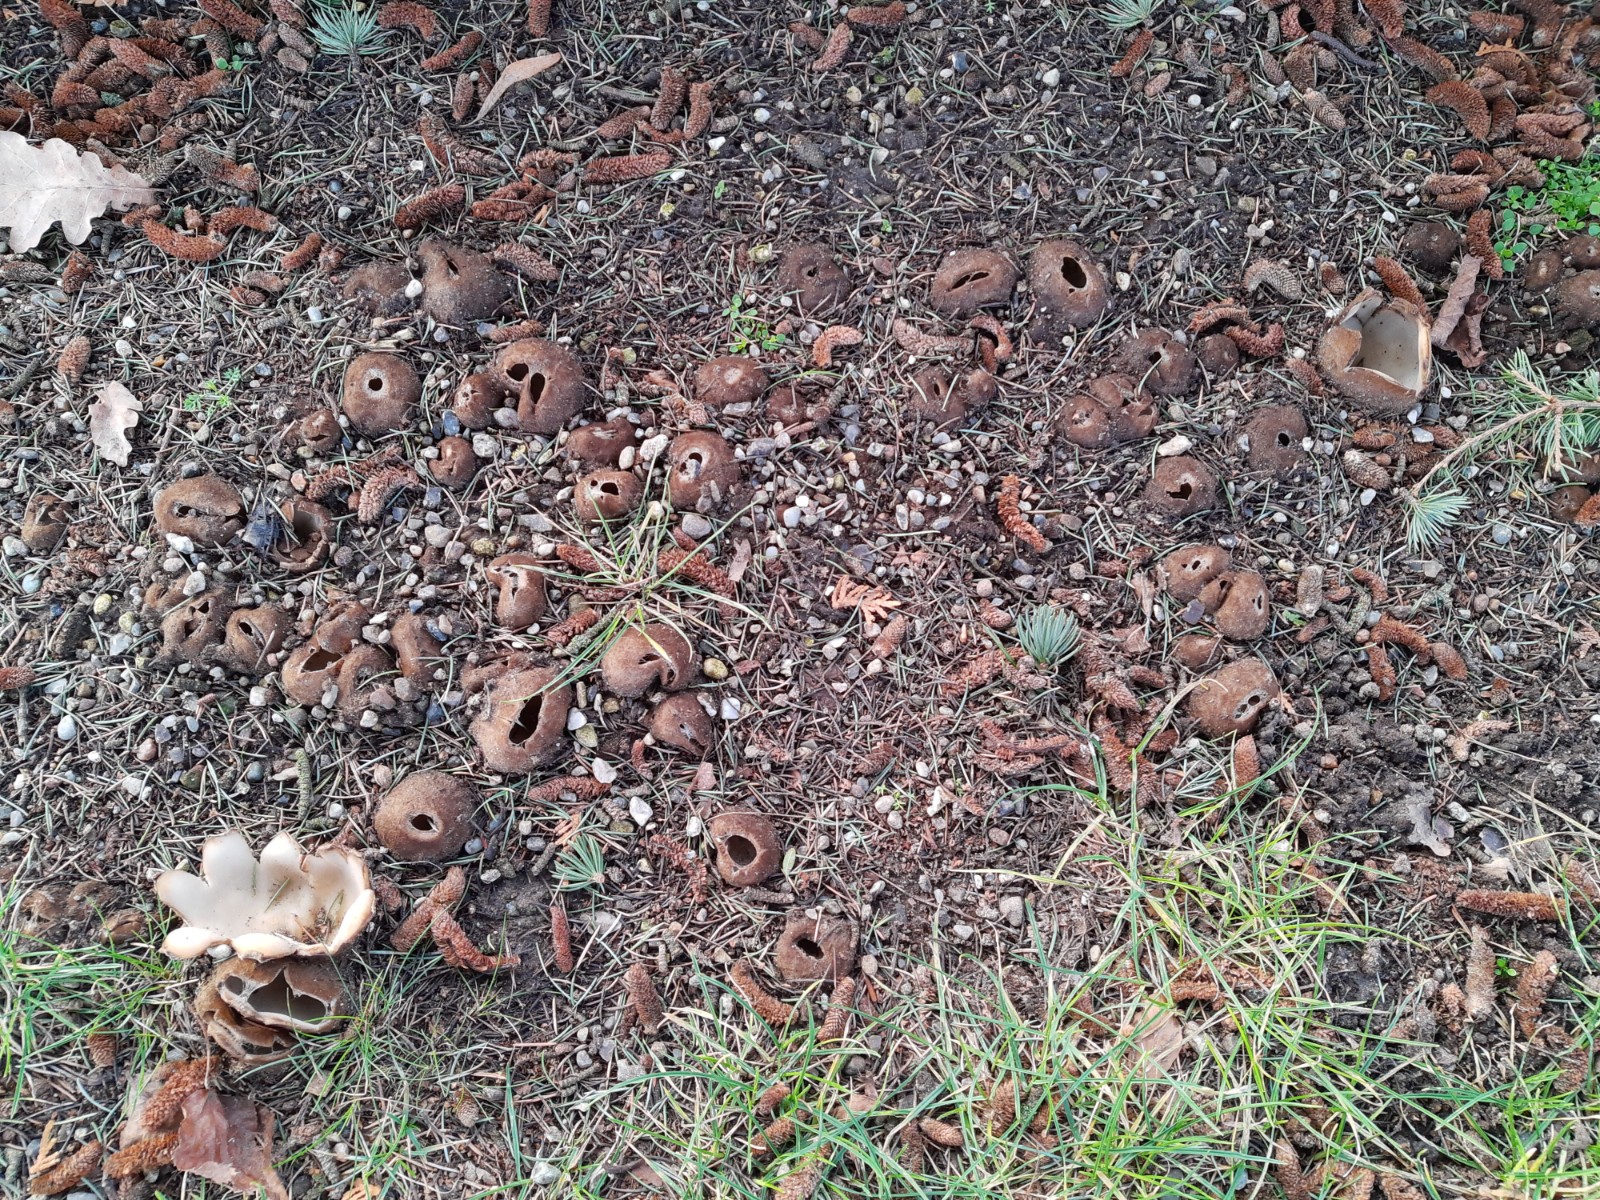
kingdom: Fungi
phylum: Ascomycota
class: Pezizomycetes
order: Pezizales
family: Pyronemataceae
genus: Geopora
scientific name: Geopora sumneriana
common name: vår-jordbæger
